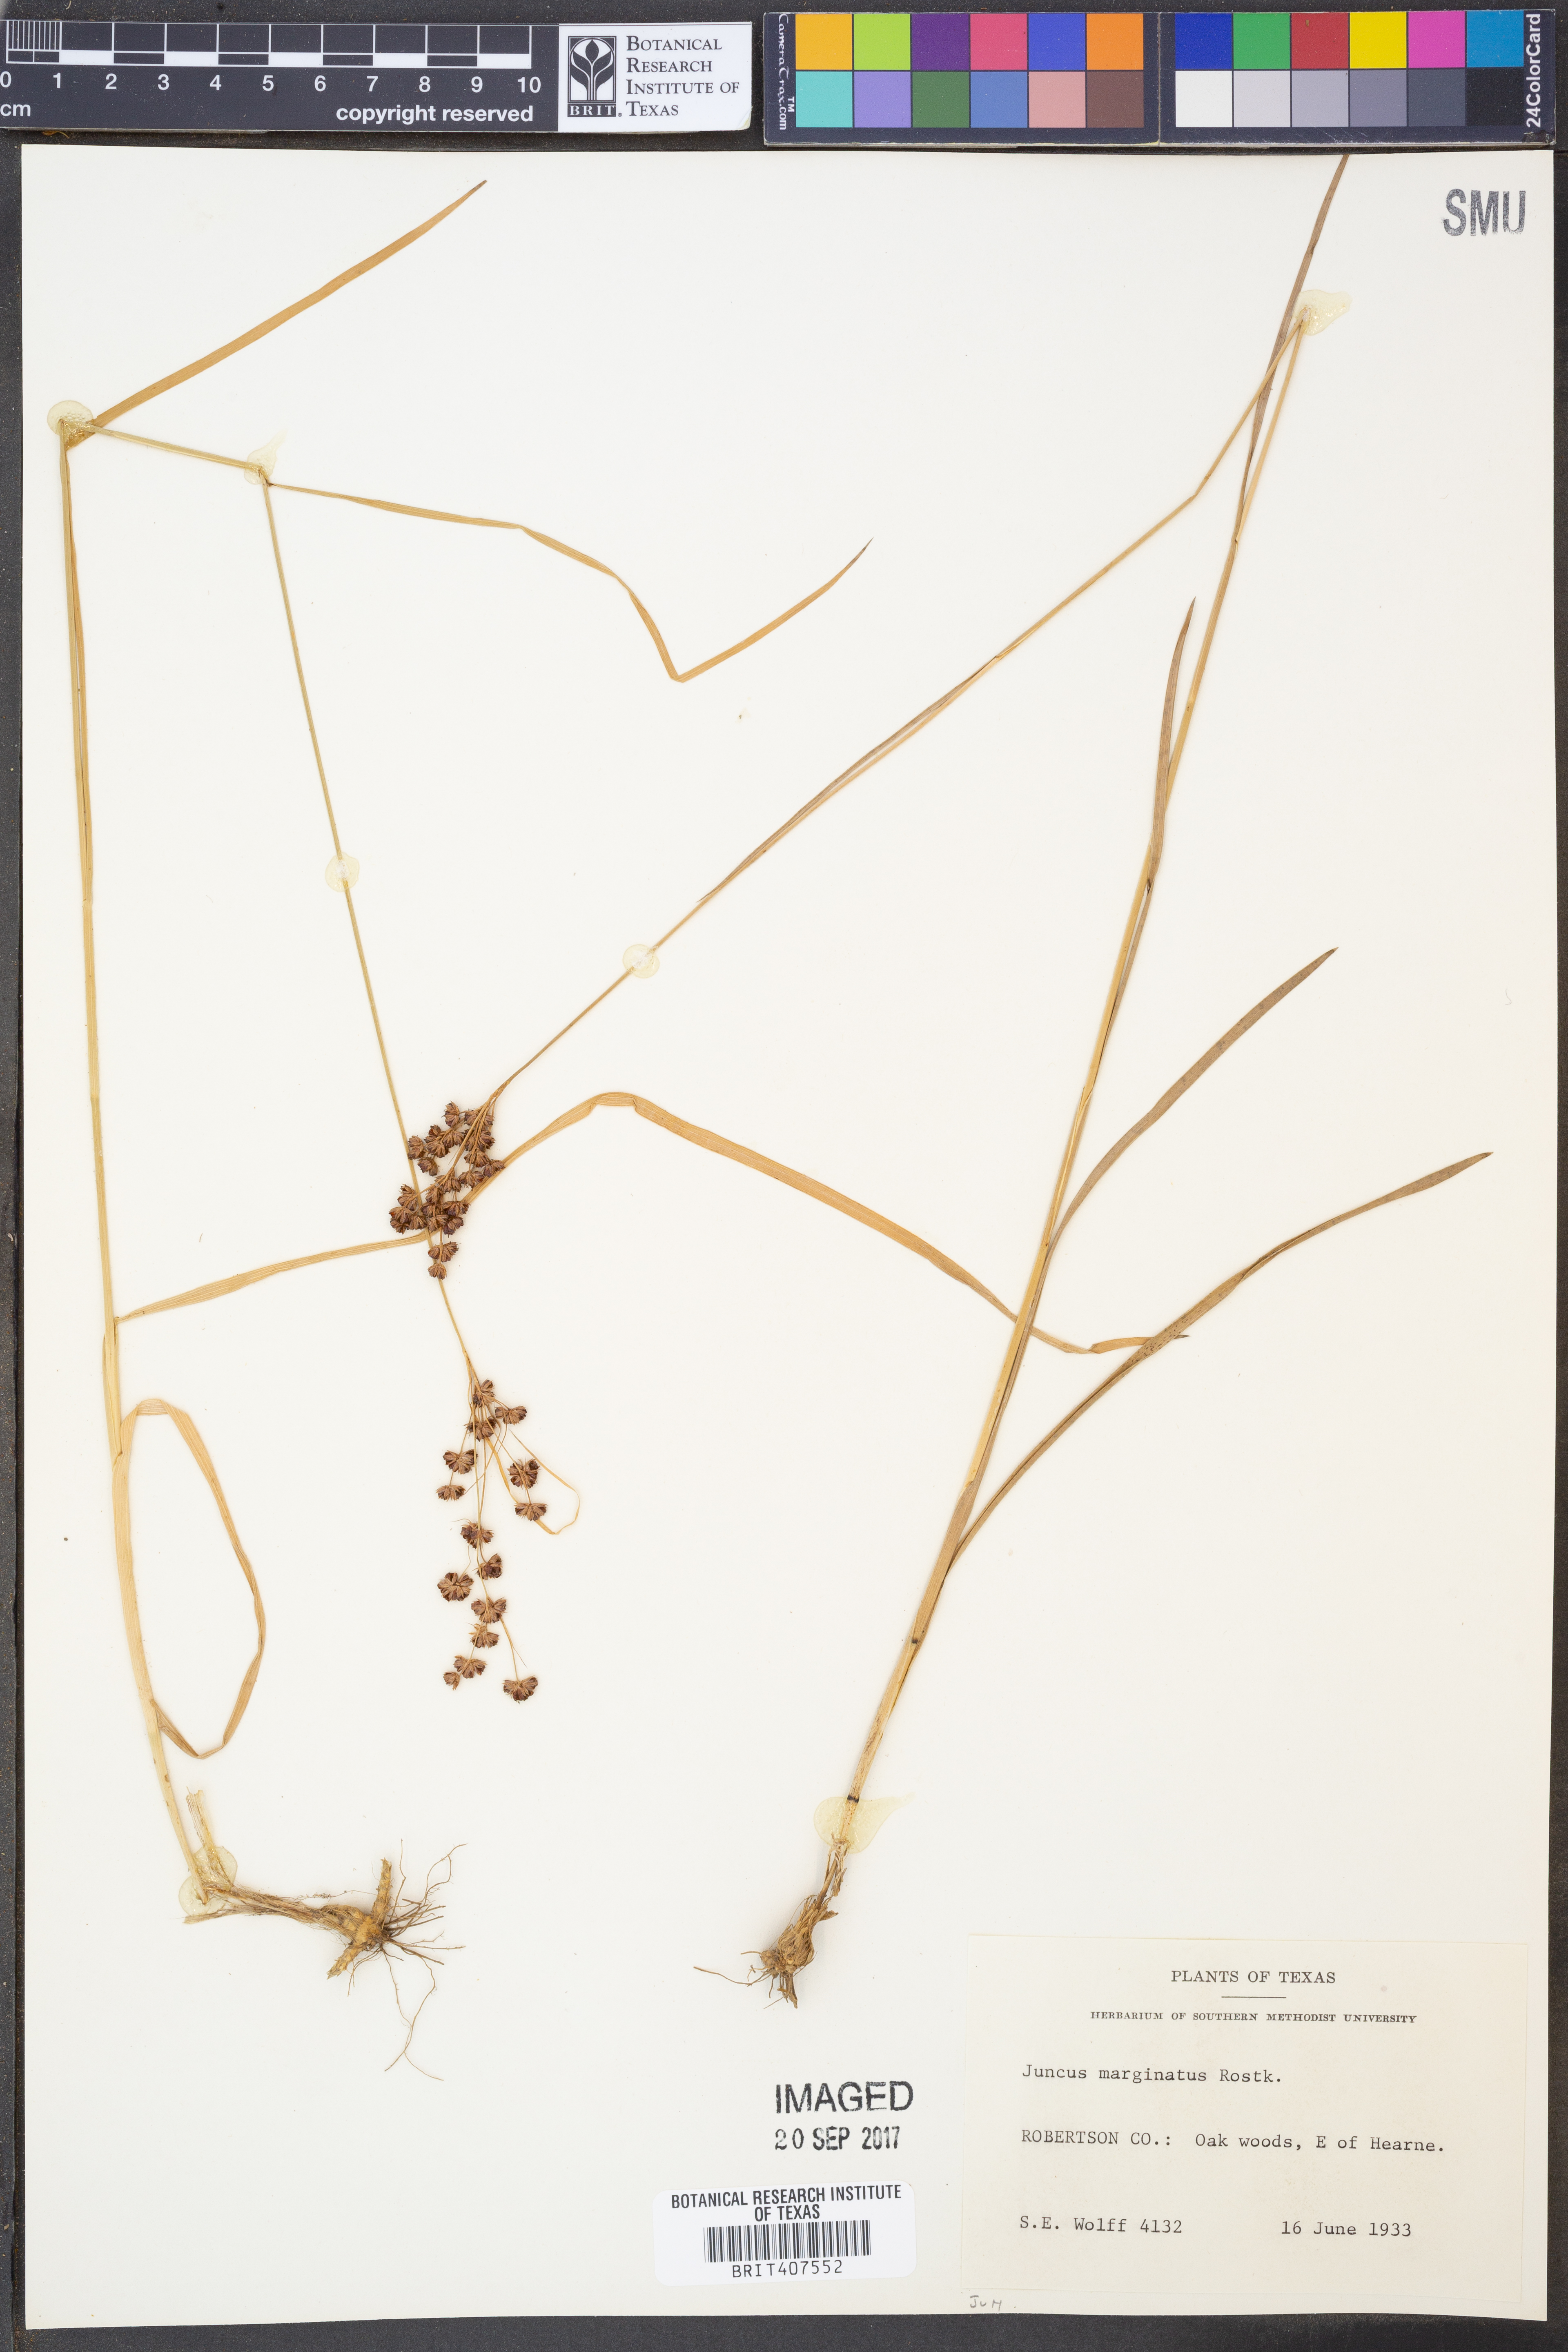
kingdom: Plantae
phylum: Tracheophyta
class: Liliopsida
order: Poales
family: Juncaceae
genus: Juncus
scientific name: Juncus marginatus
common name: Grass-leaf rush
